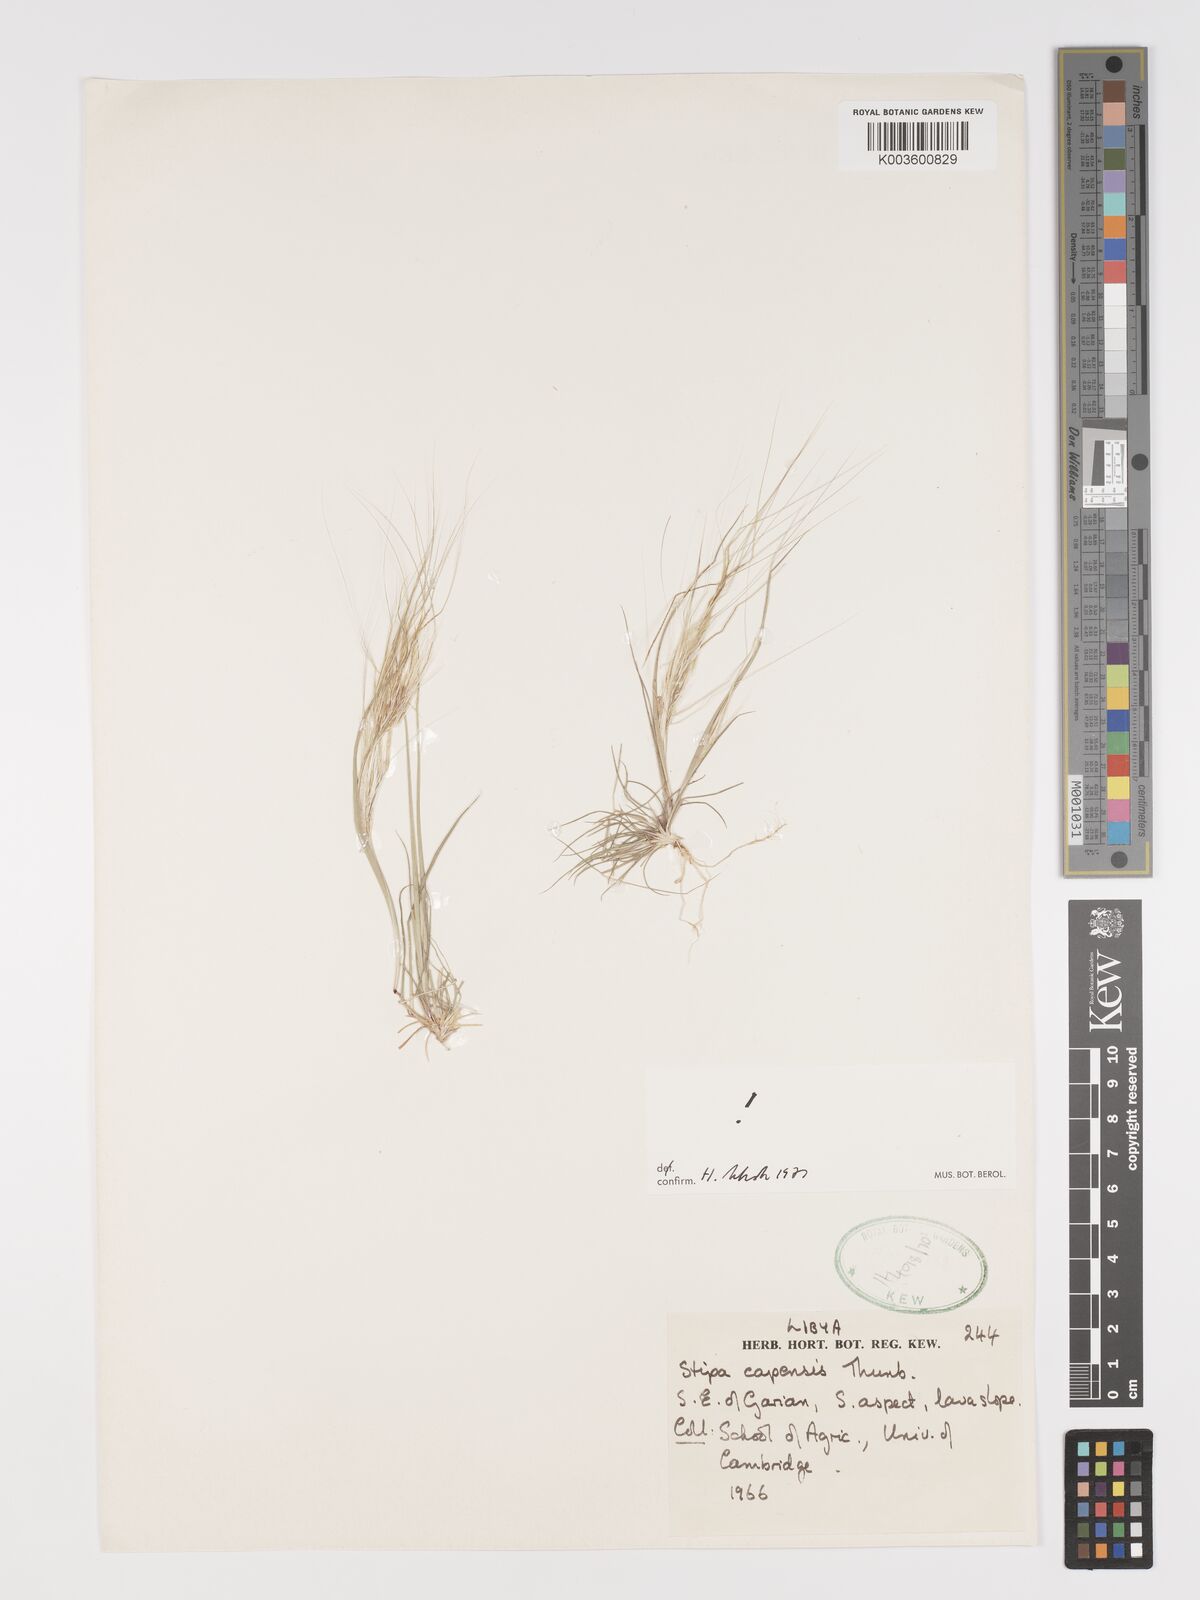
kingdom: Plantae
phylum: Tracheophyta
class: Liliopsida
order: Poales
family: Poaceae
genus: Stipellula
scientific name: Stipellula capensis
